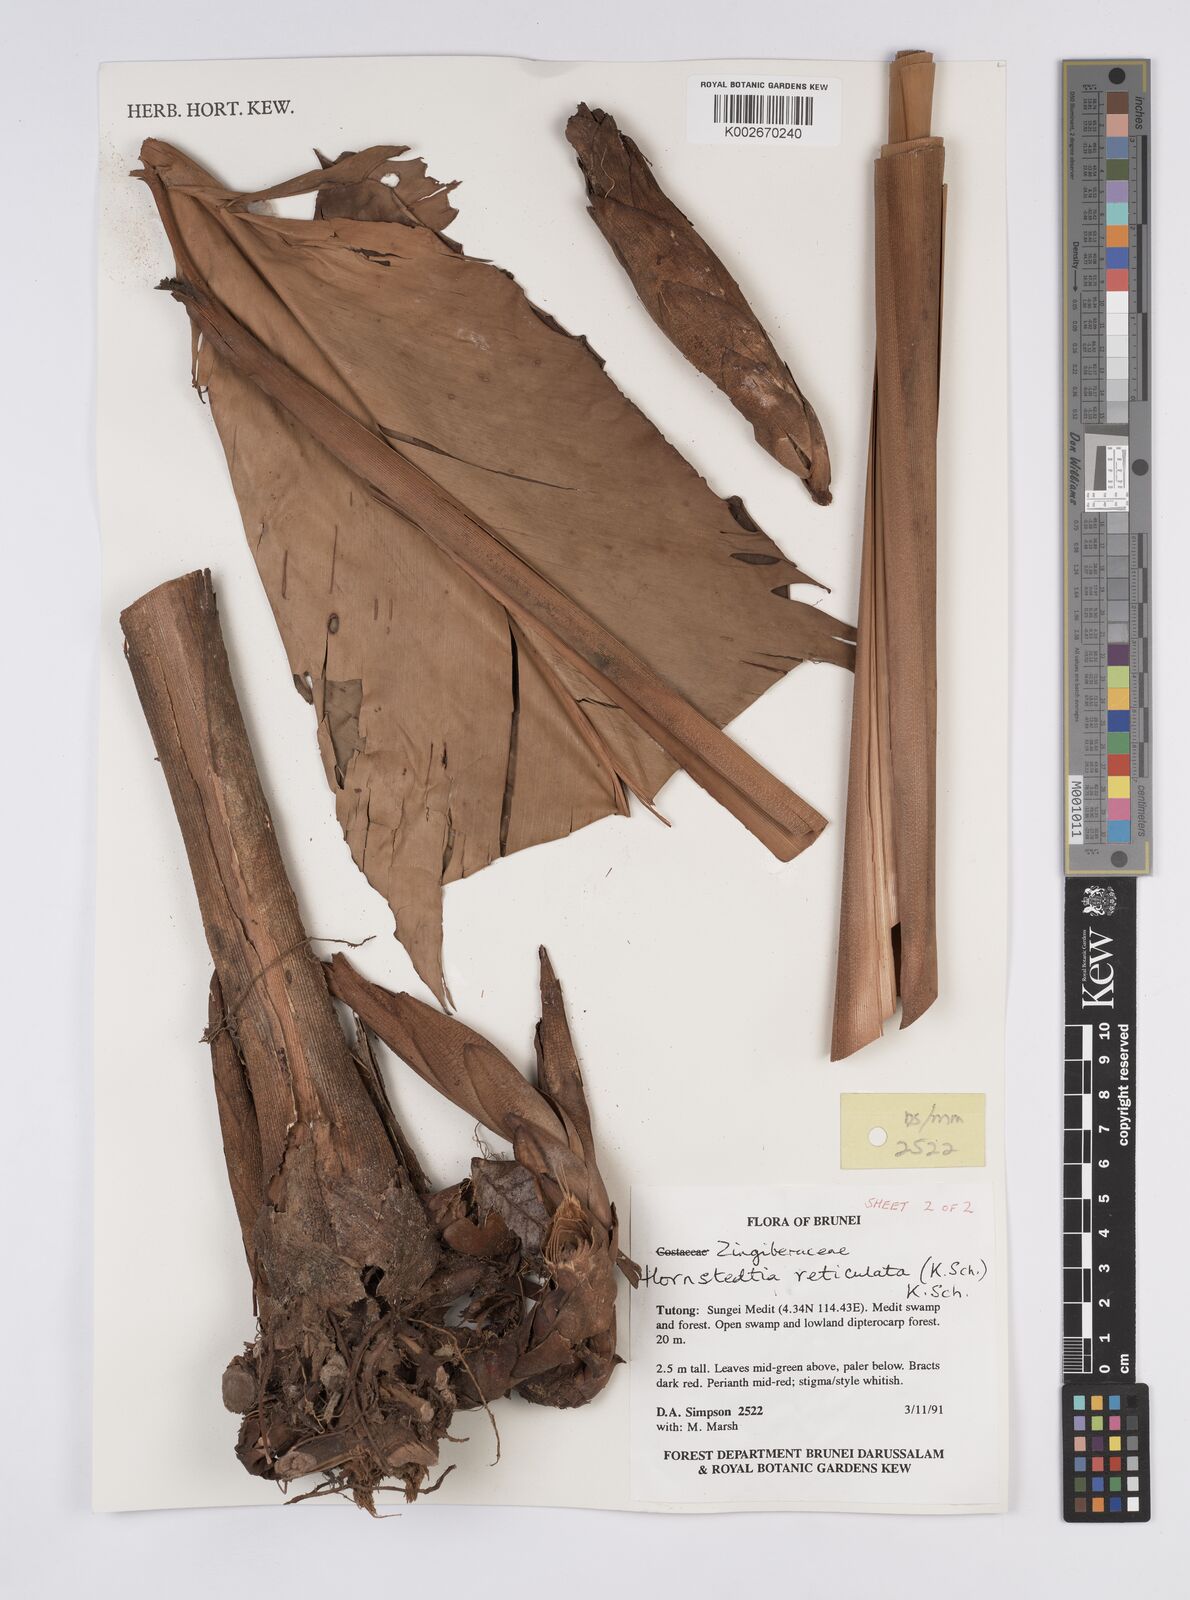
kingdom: Plantae
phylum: Tracheophyta
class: Liliopsida
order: Zingiberales
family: Zingiberaceae
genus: Hornstedtia
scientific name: Hornstedtia reticulata
